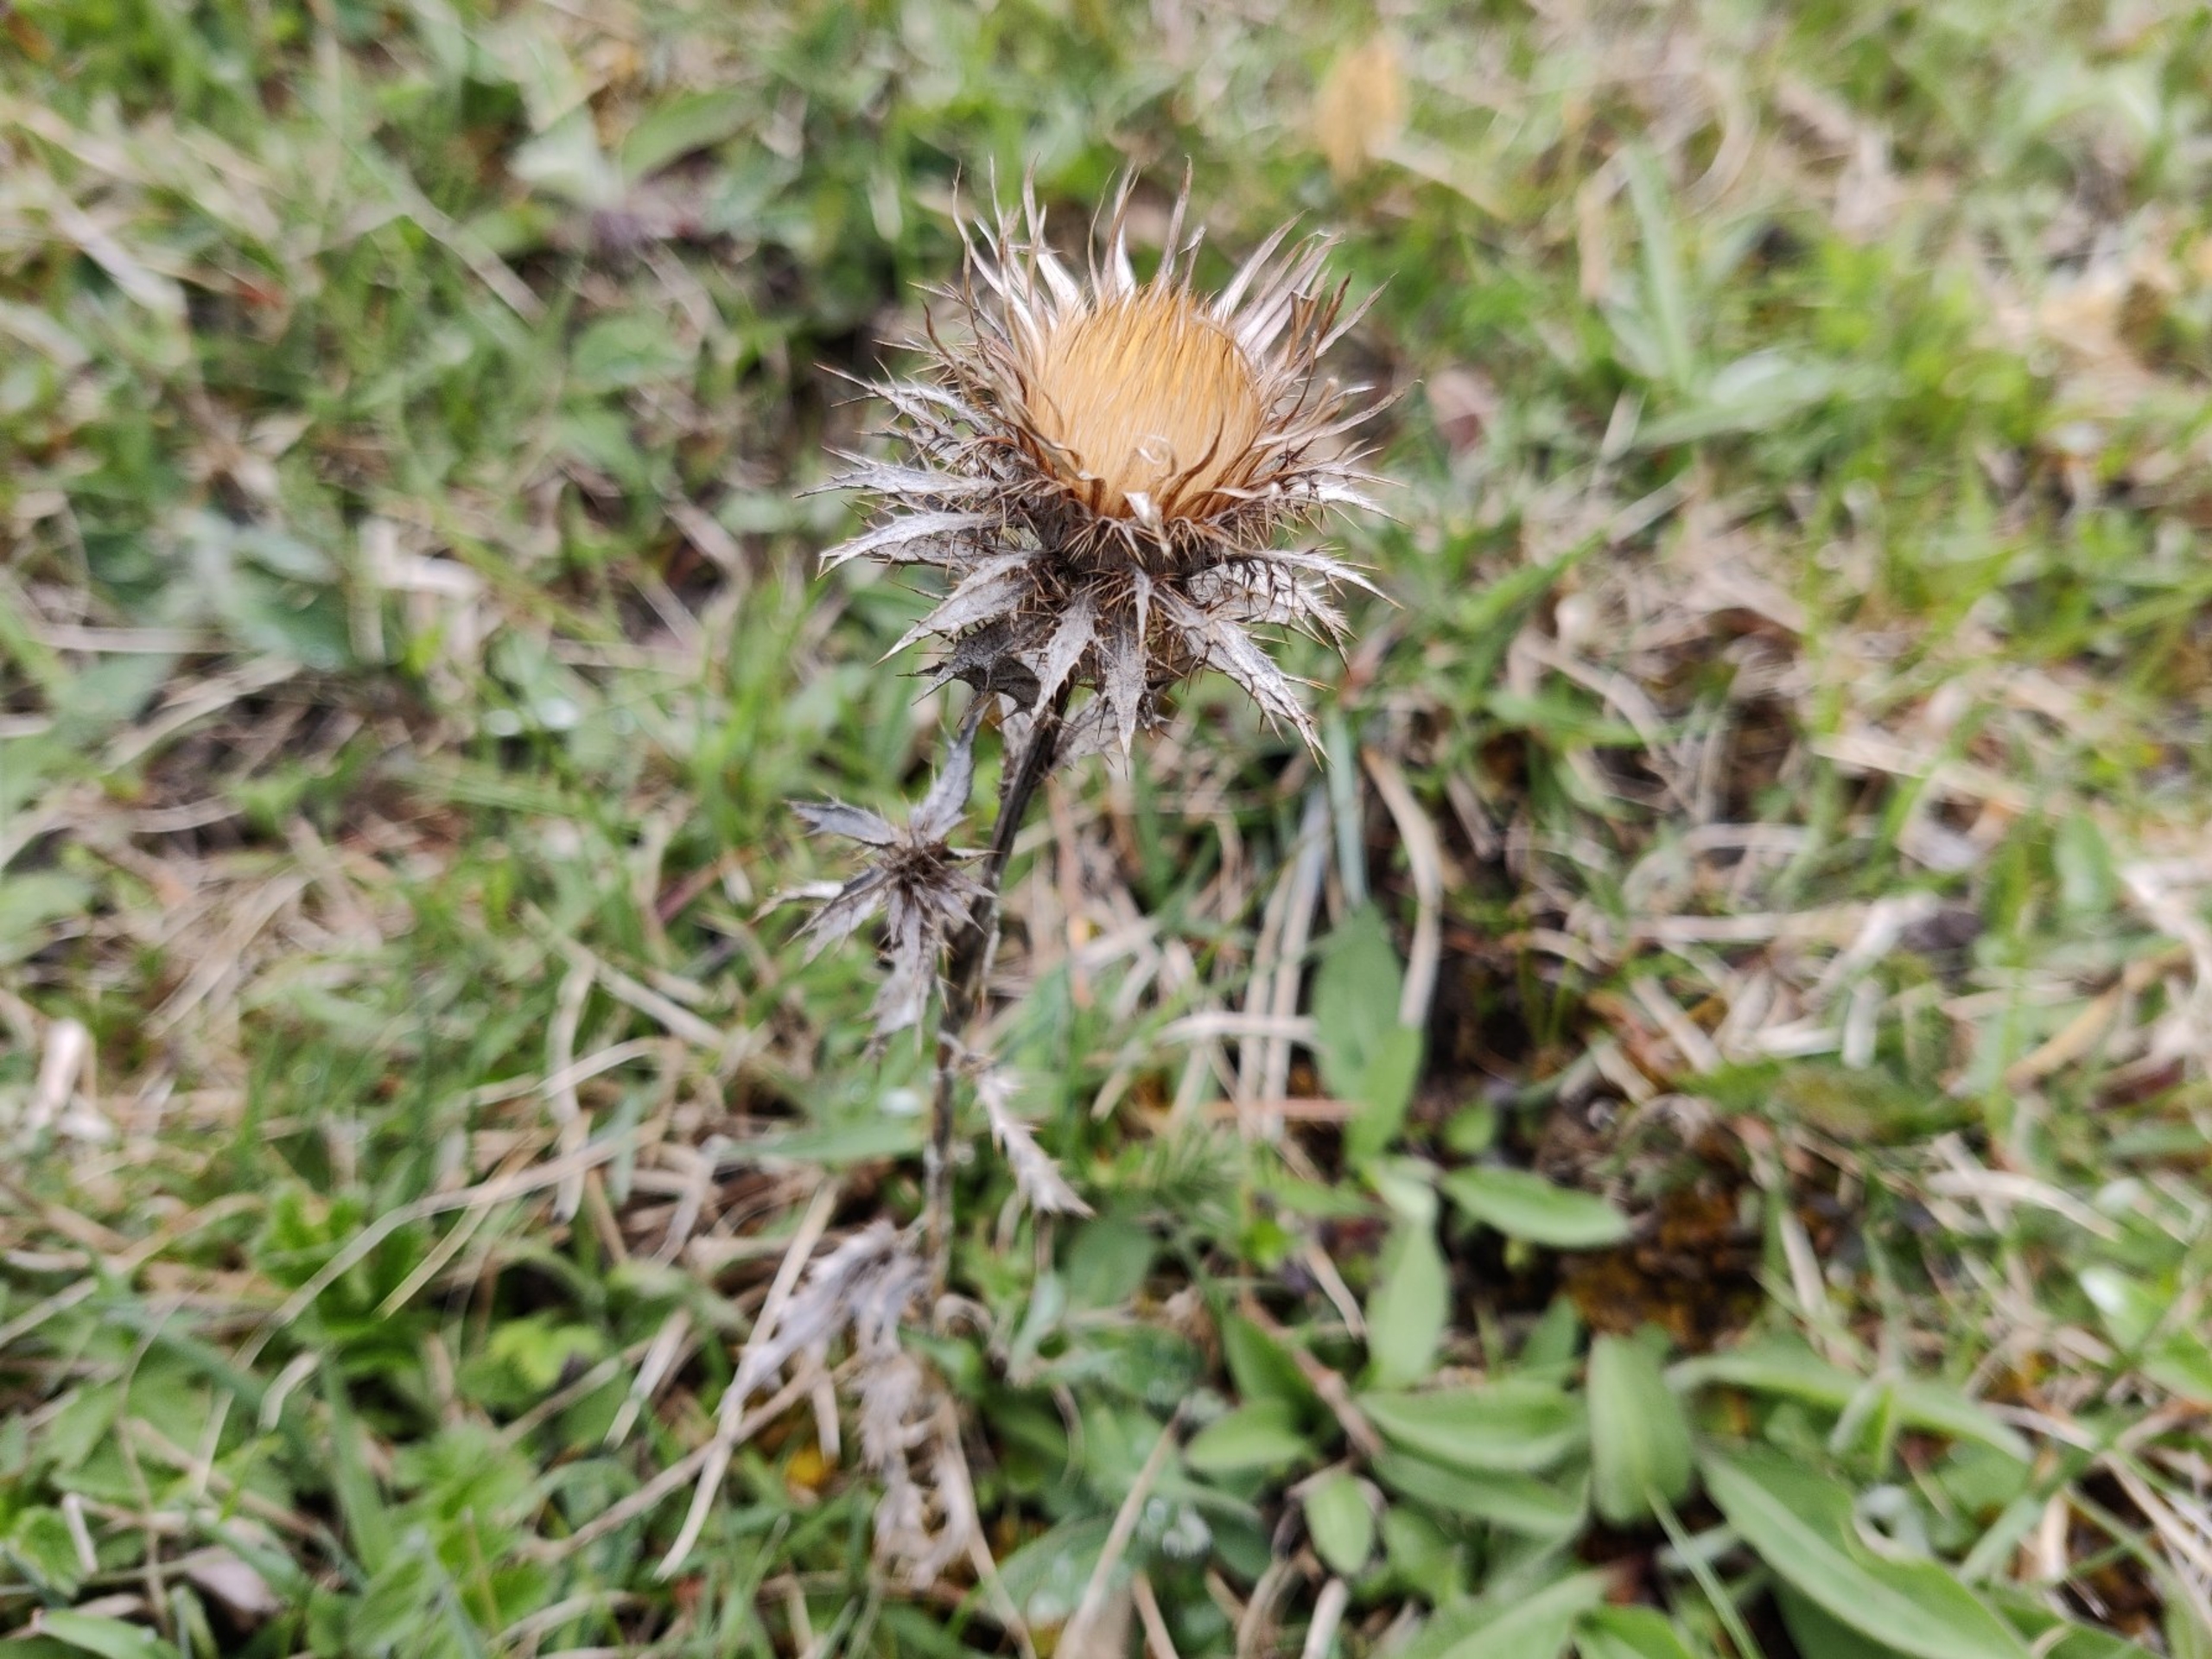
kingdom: Plantae
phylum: Tracheophyta
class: Magnoliopsida
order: Asterales
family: Asteraceae
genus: Carlina
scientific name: Carlina vulgaris
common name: Bakketidsel
